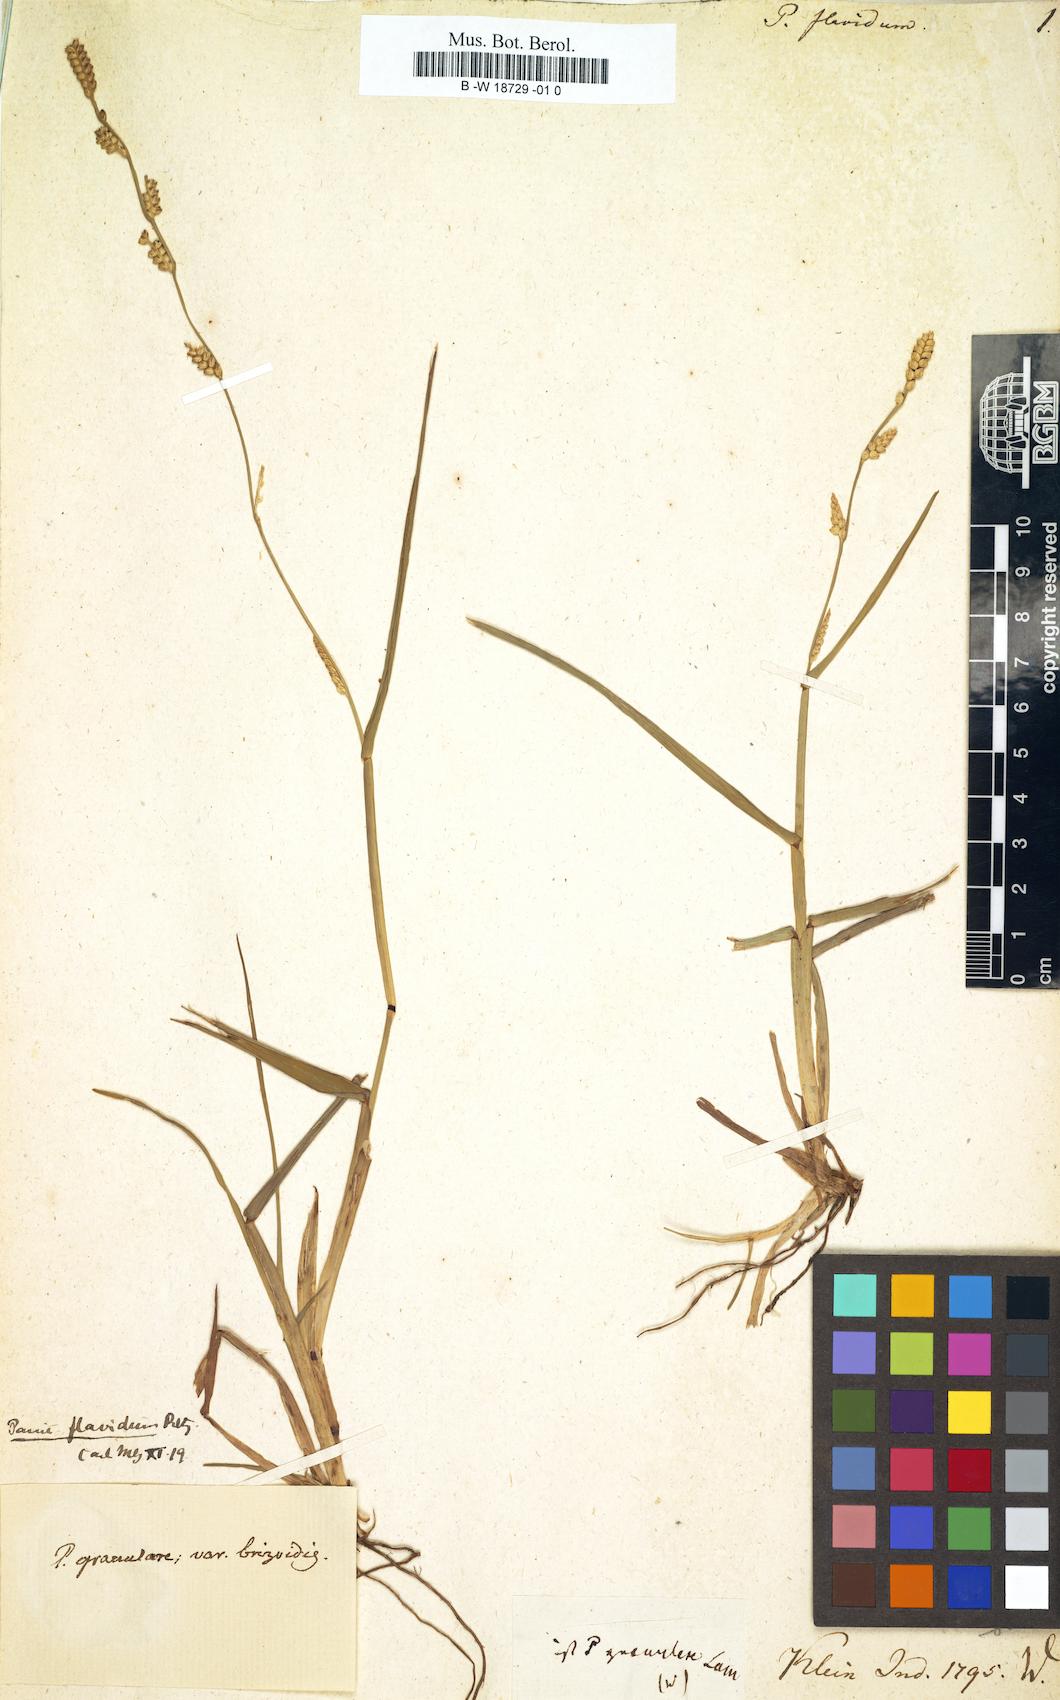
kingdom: Plantae
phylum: Tracheophyta
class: Liliopsida
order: Poales
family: Poaceae
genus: Setaria
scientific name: Setaria flavida
